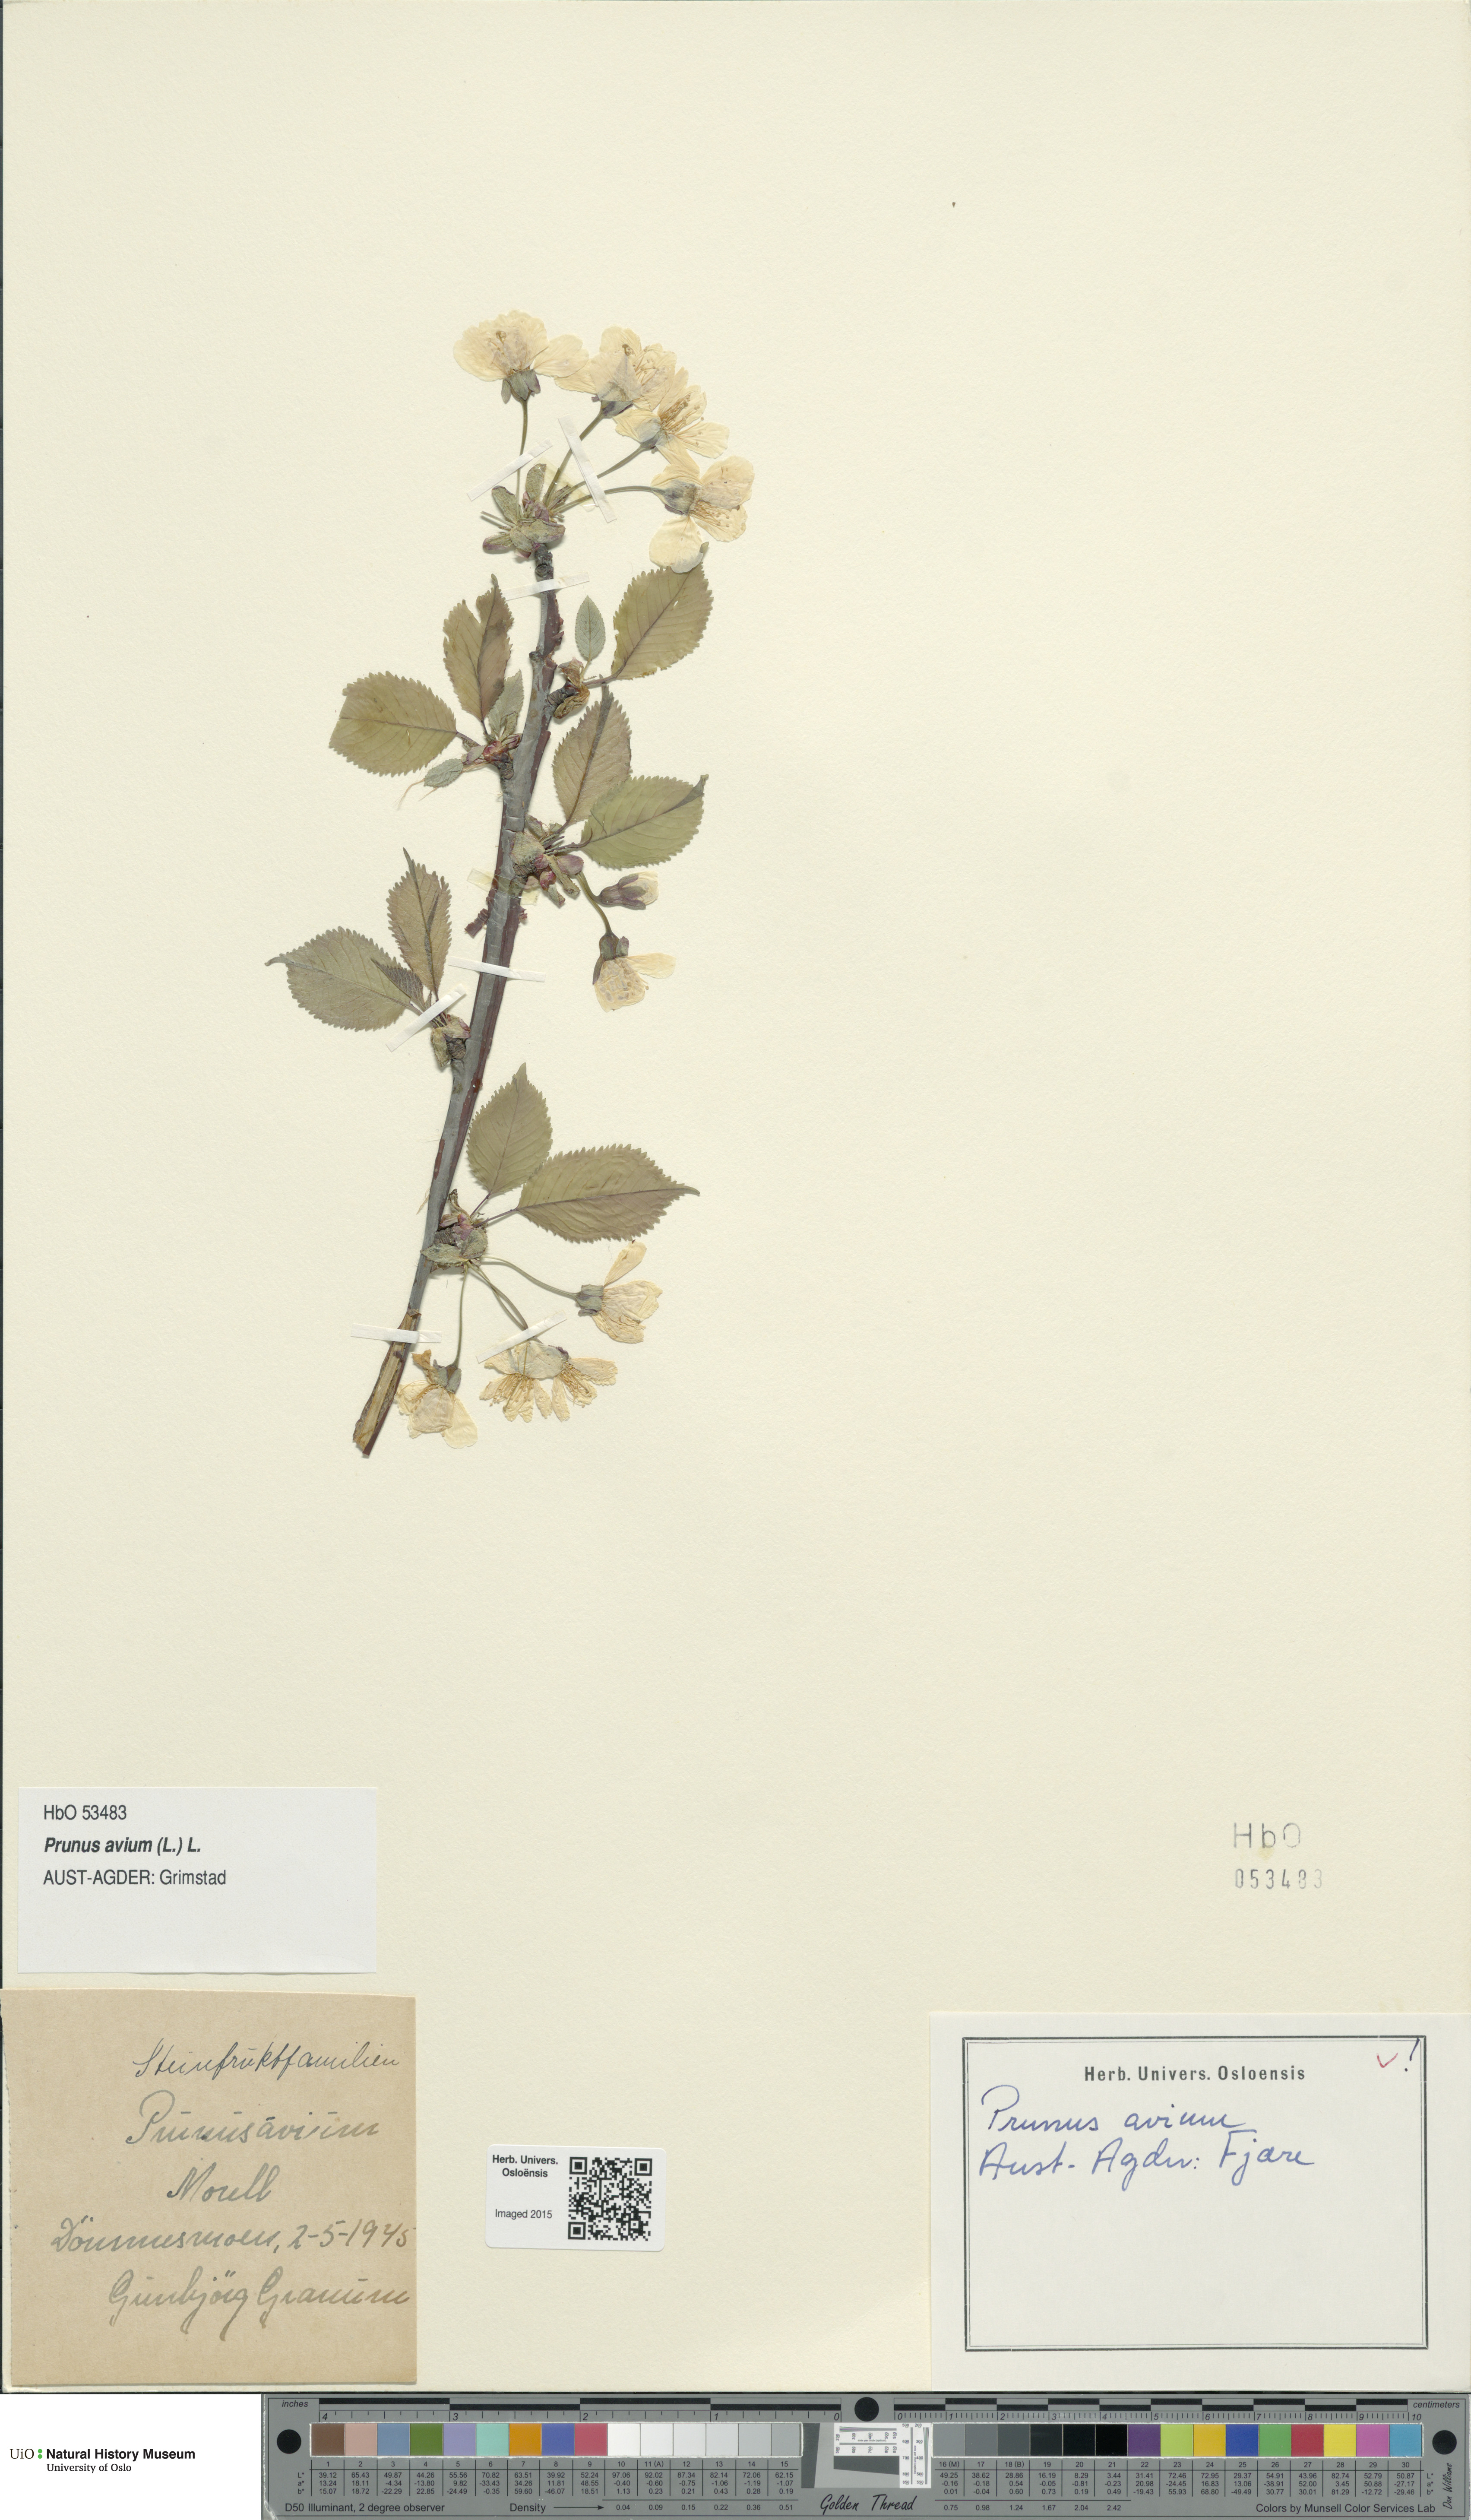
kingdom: Plantae
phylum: Tracheophyta
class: Magnoliopsida
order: Rosales
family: Rosaceae
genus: Prunus
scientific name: Prunus avium
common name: Sweet cherry
